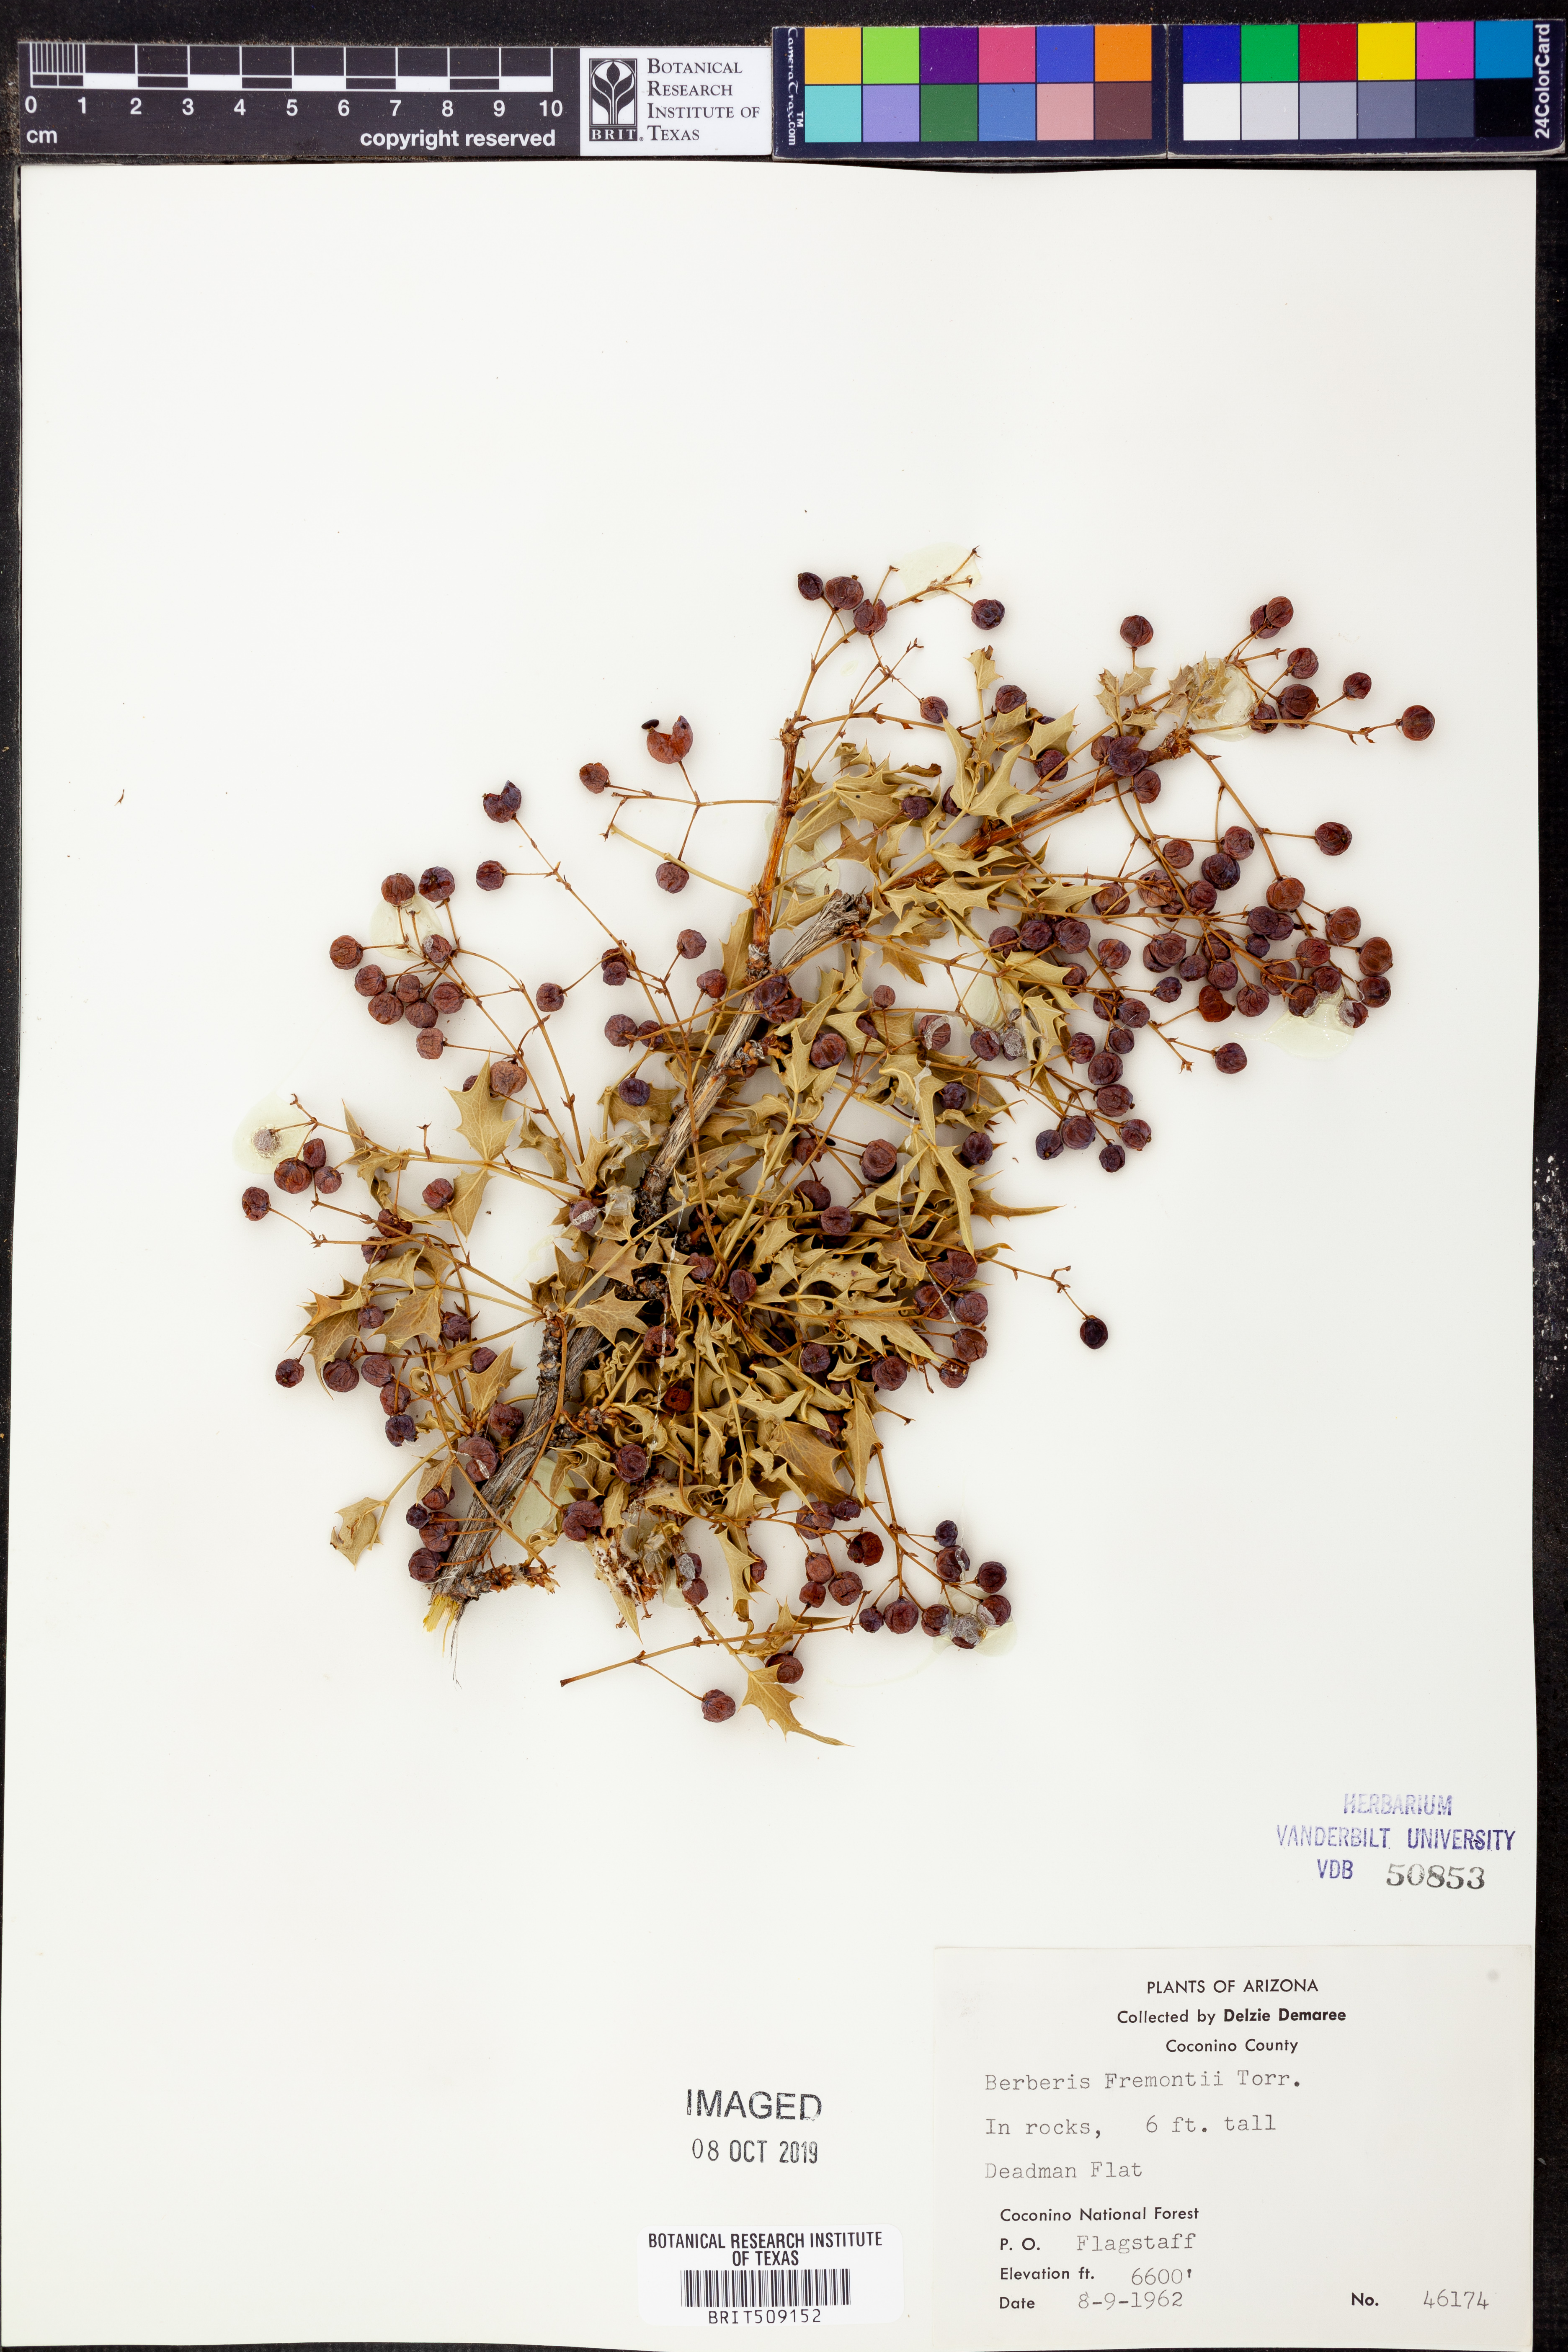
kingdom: Plantae
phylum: Tracheophyta
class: Magnoliopsida
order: Ranunculales
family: Berberidaceae
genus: Alloberberis
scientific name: Alloberberis fremontii
